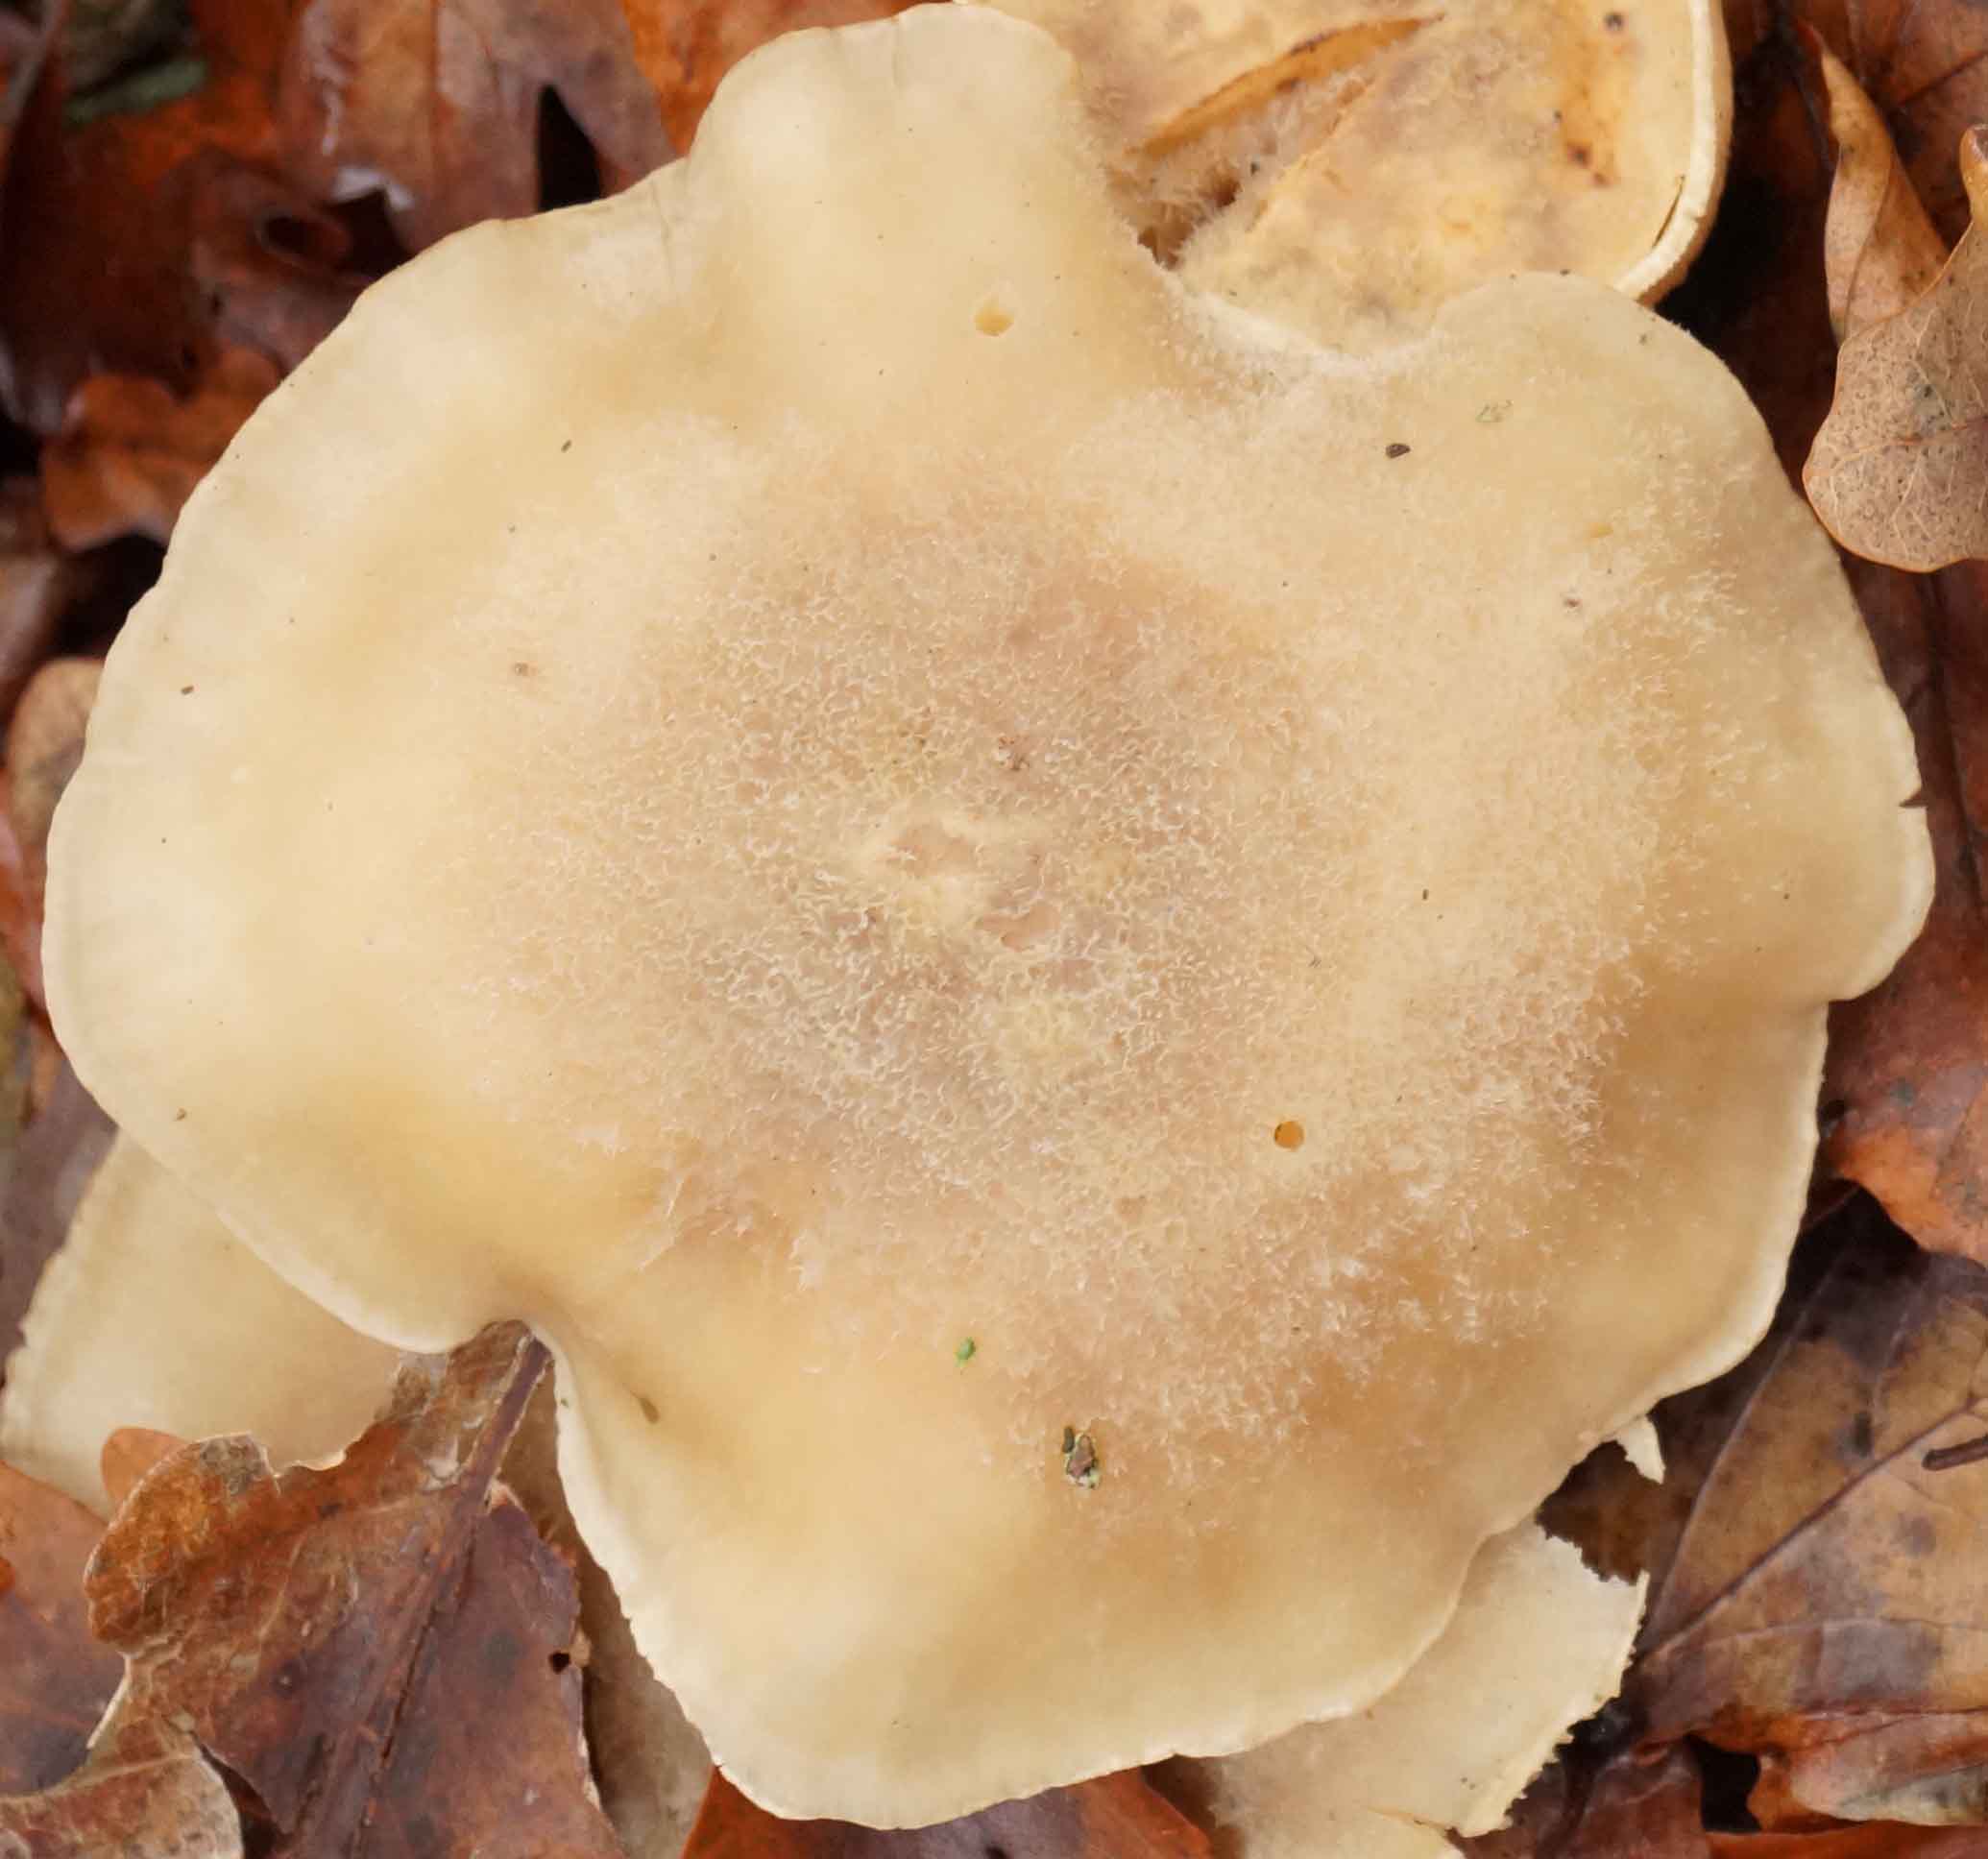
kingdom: Fungi
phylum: Basidiomycota
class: Agaricomycetes
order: Agaricales
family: Tricholomataceae
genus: Clitocybe
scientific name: Clitocybe
